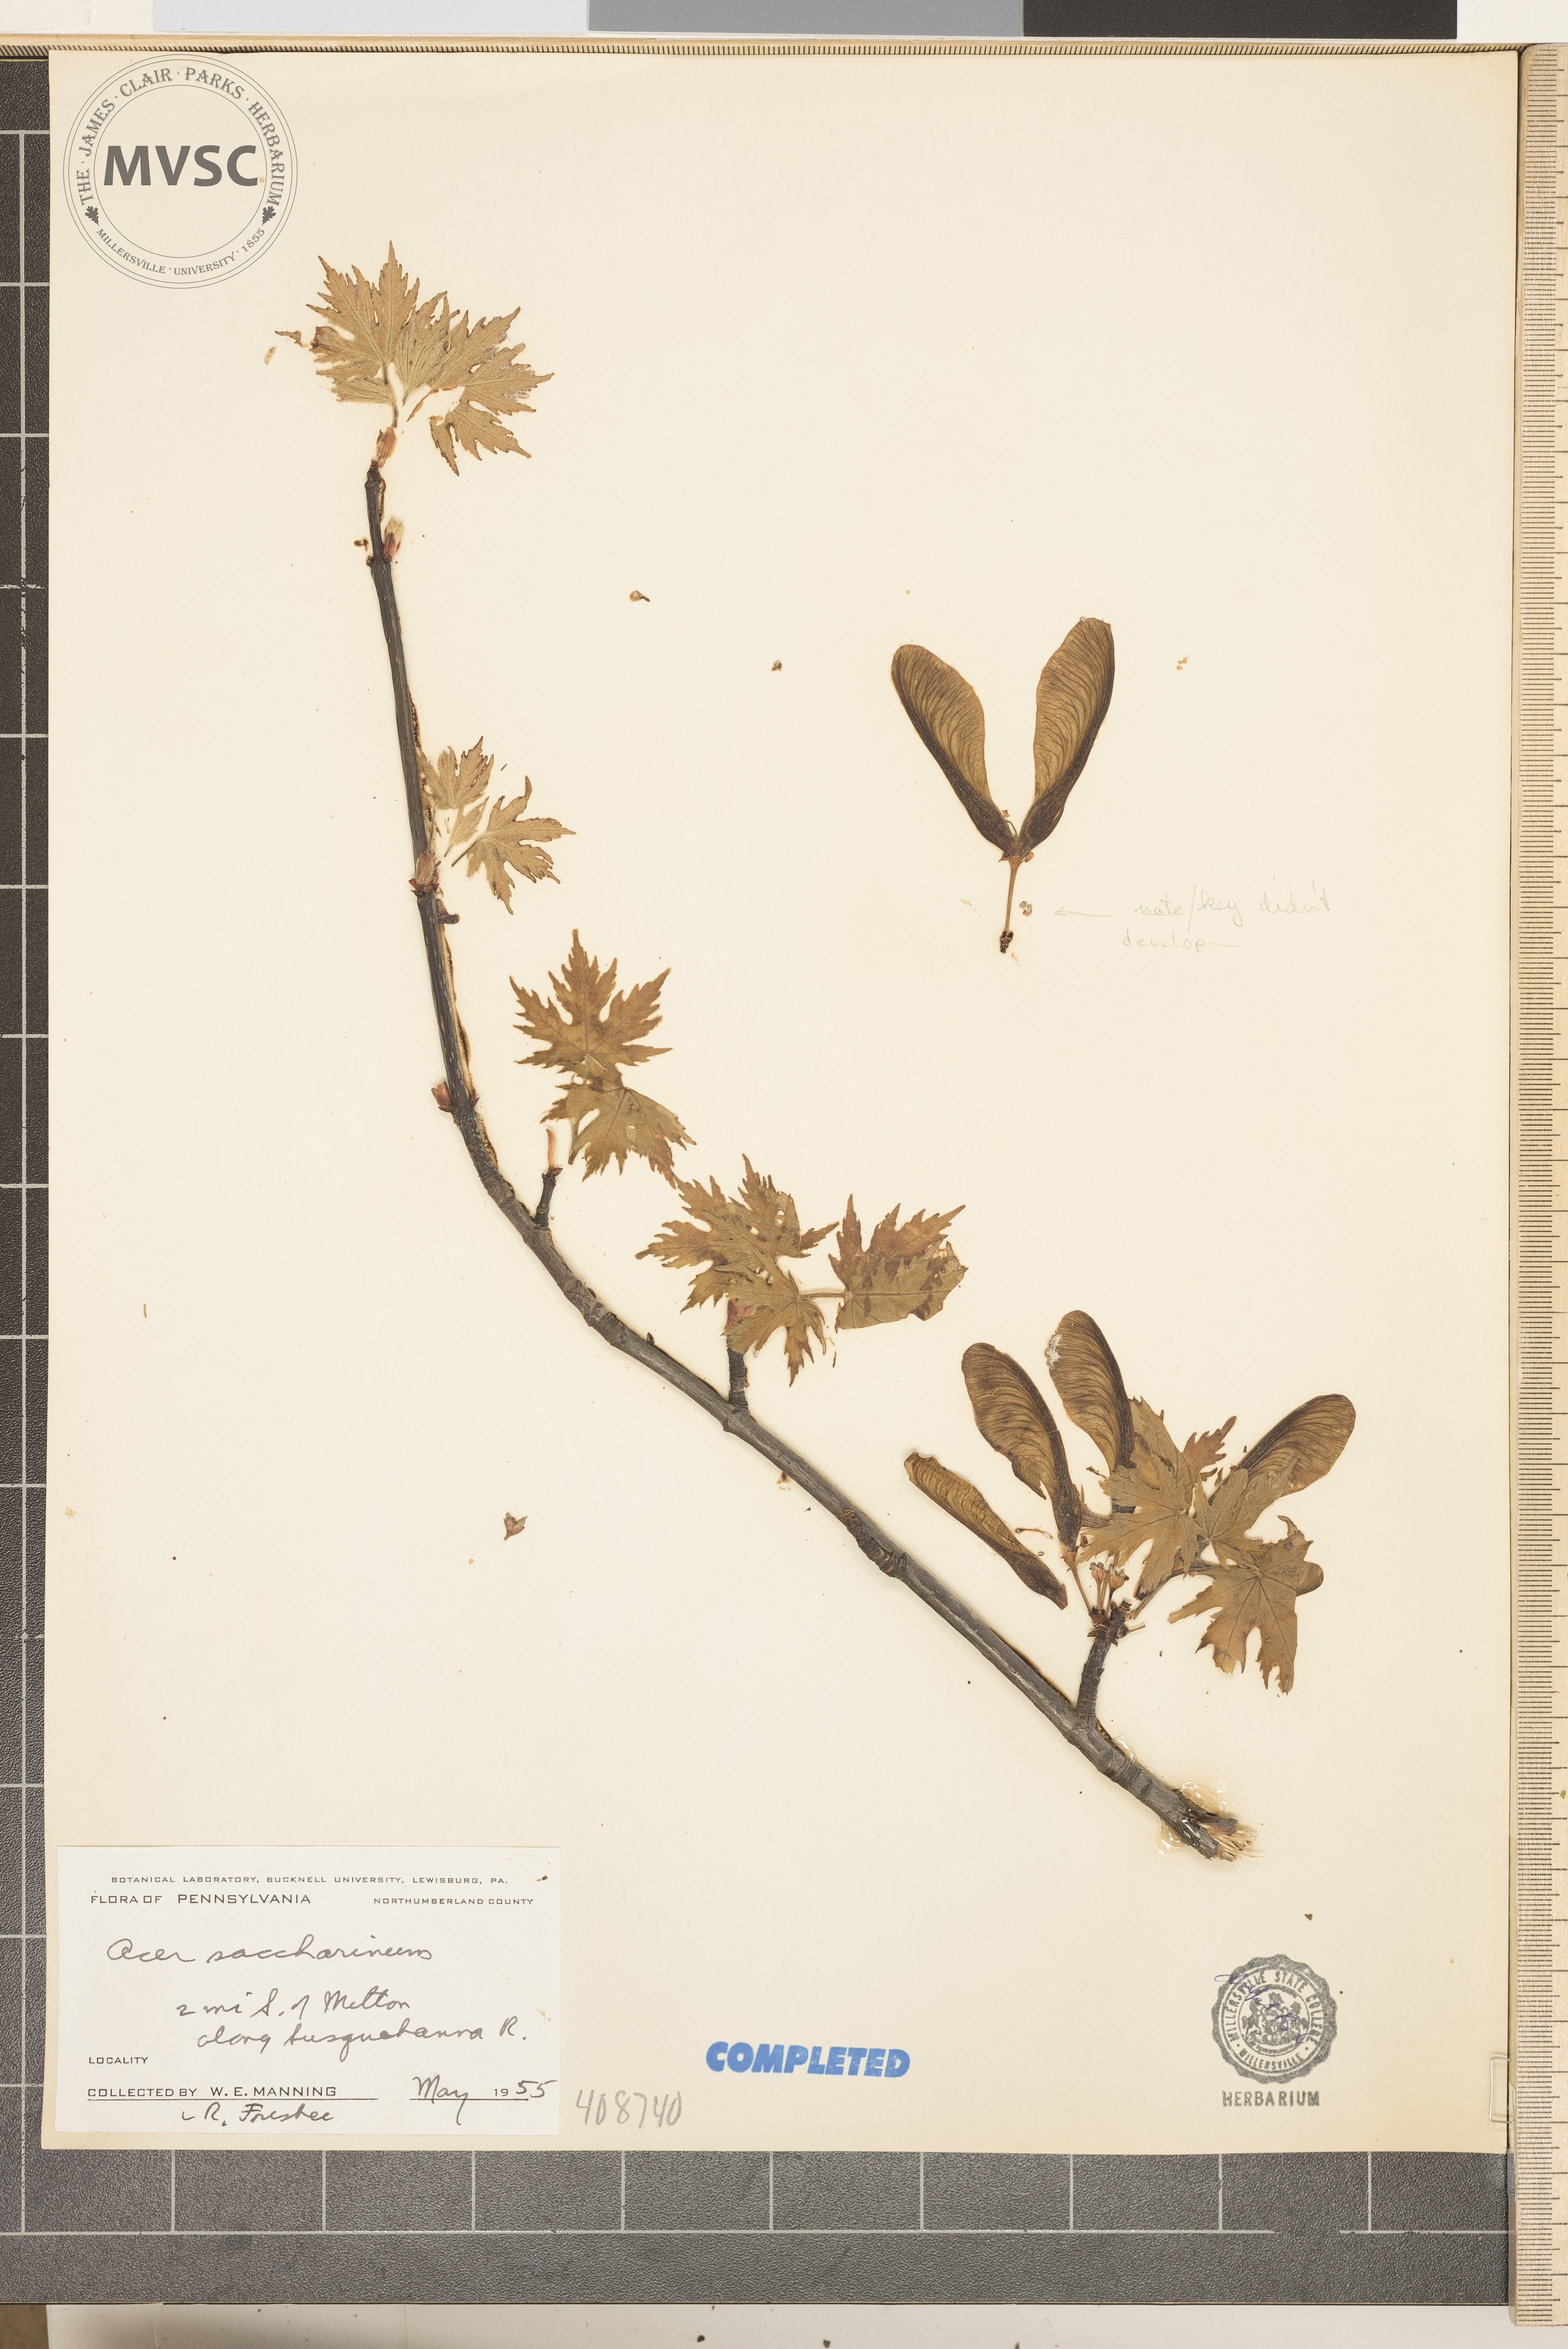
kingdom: Plantae
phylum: Tracheophyta
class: Magnoliopsida
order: Sapindales
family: Sapindaceae
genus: Acer
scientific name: Acer saccharinum
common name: Silver maple
